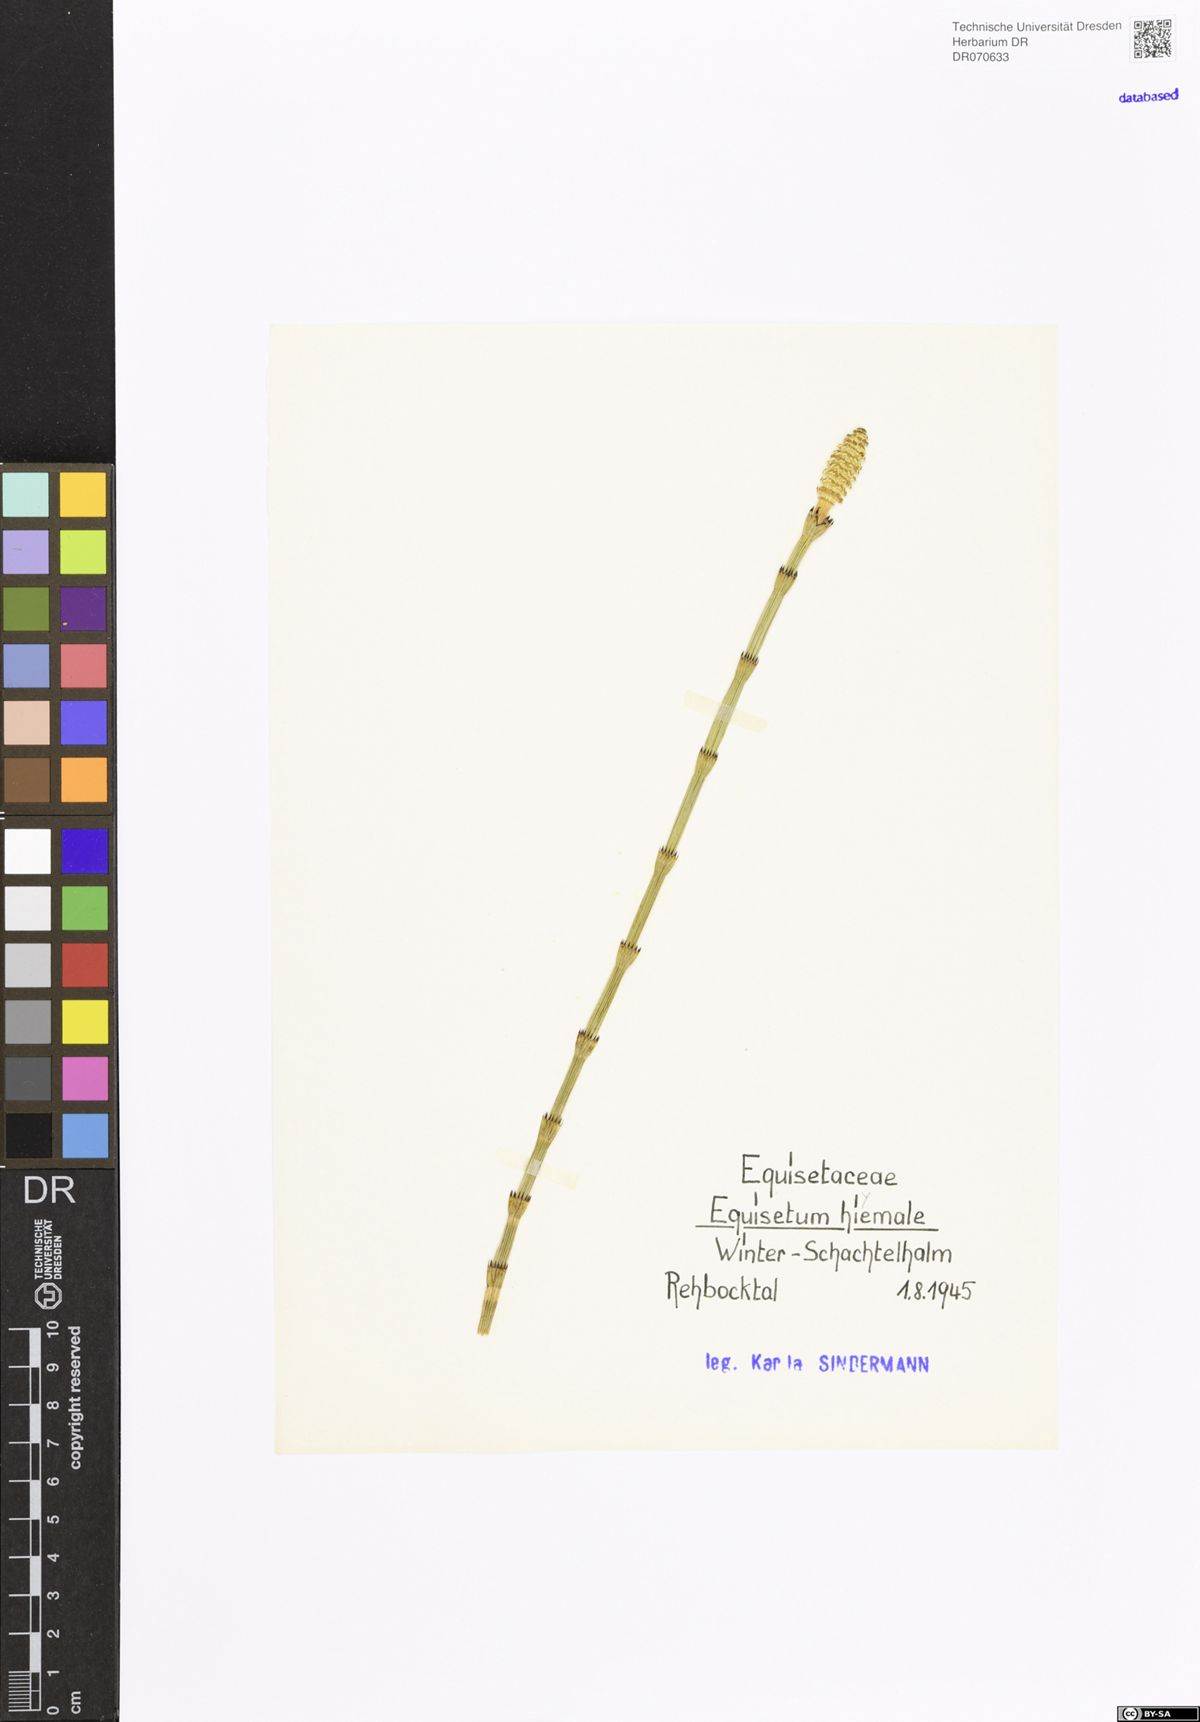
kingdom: Plantae
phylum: Tracheophyta
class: Polypodiopsida
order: Equisetales
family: Equisetaceae
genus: Equisetum
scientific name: Equisetum hyemale
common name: Rough horsetail
